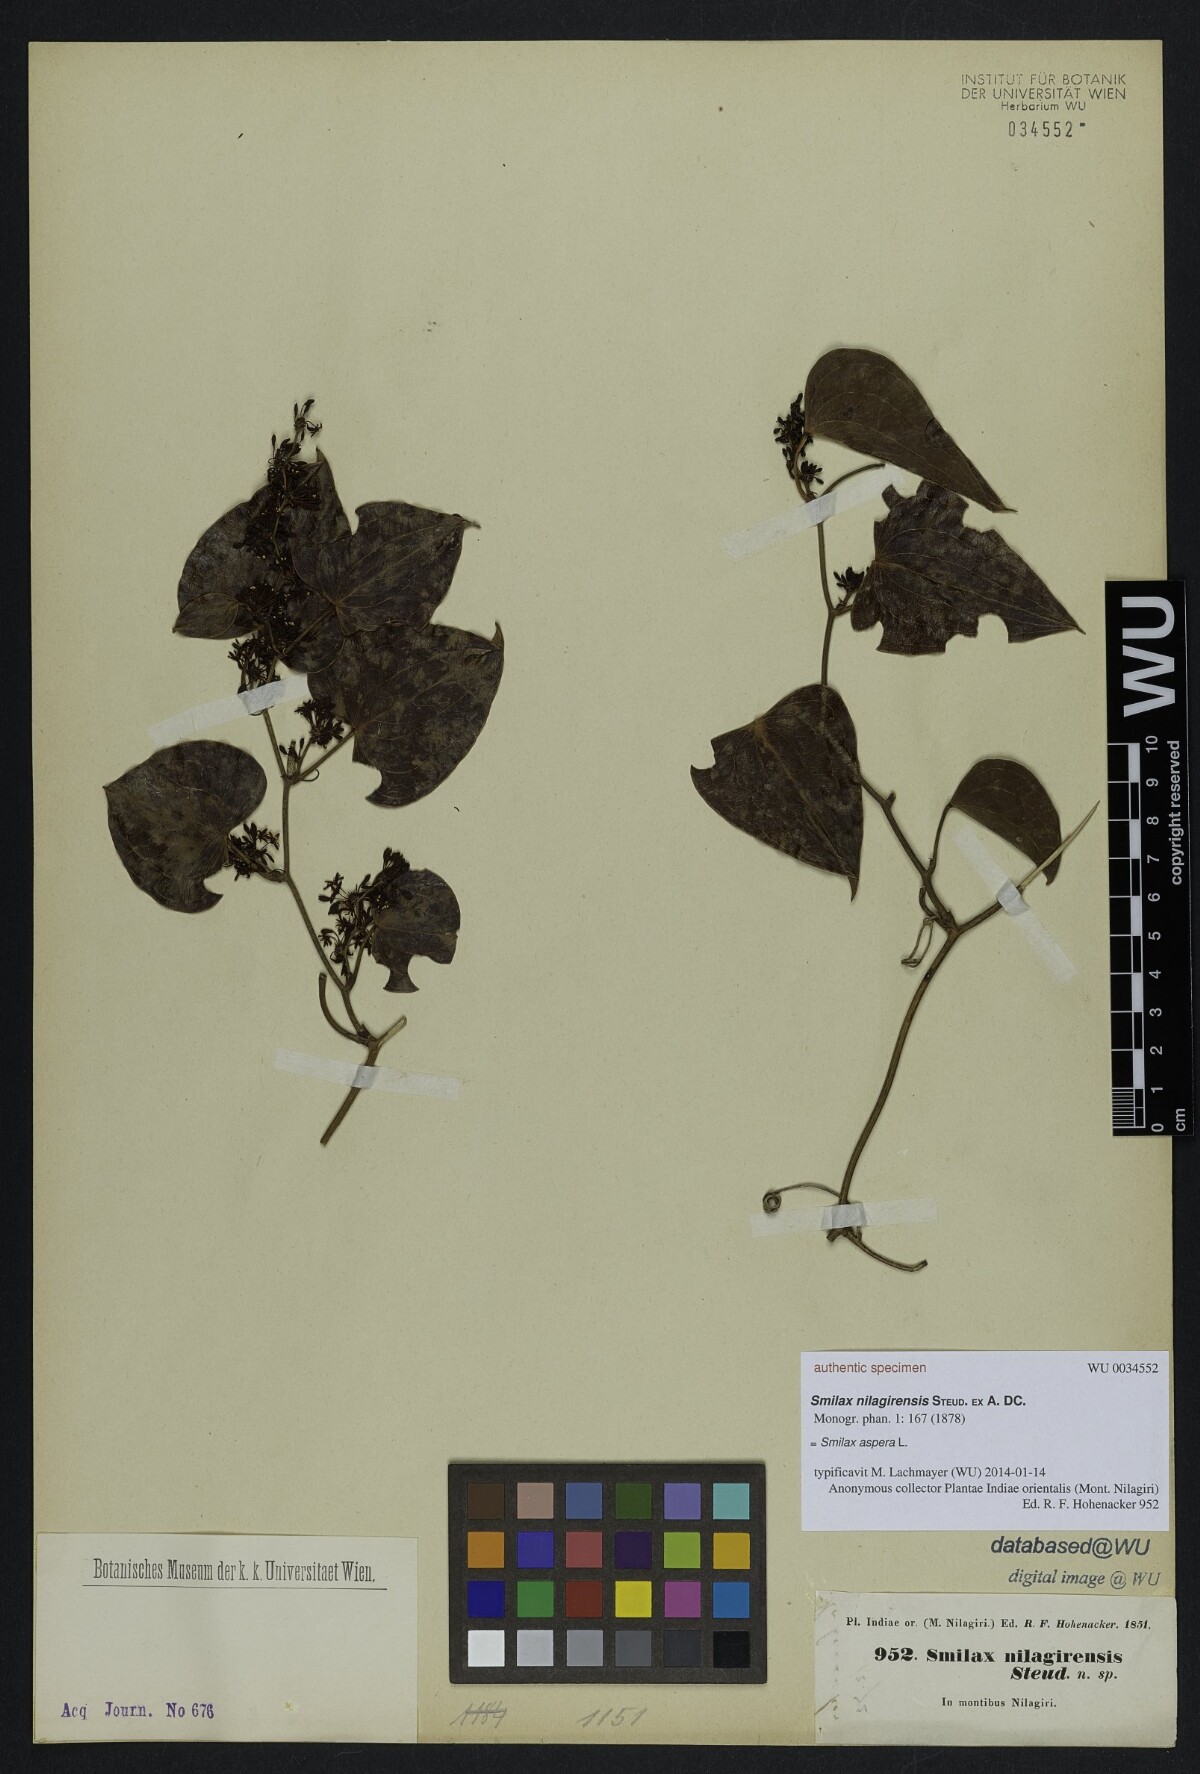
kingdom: Plantae
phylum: Tracheophyta
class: Liliopsida
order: Liliales
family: Smilacaceae
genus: Smilax
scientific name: Smilax aspera
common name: Common smilax
